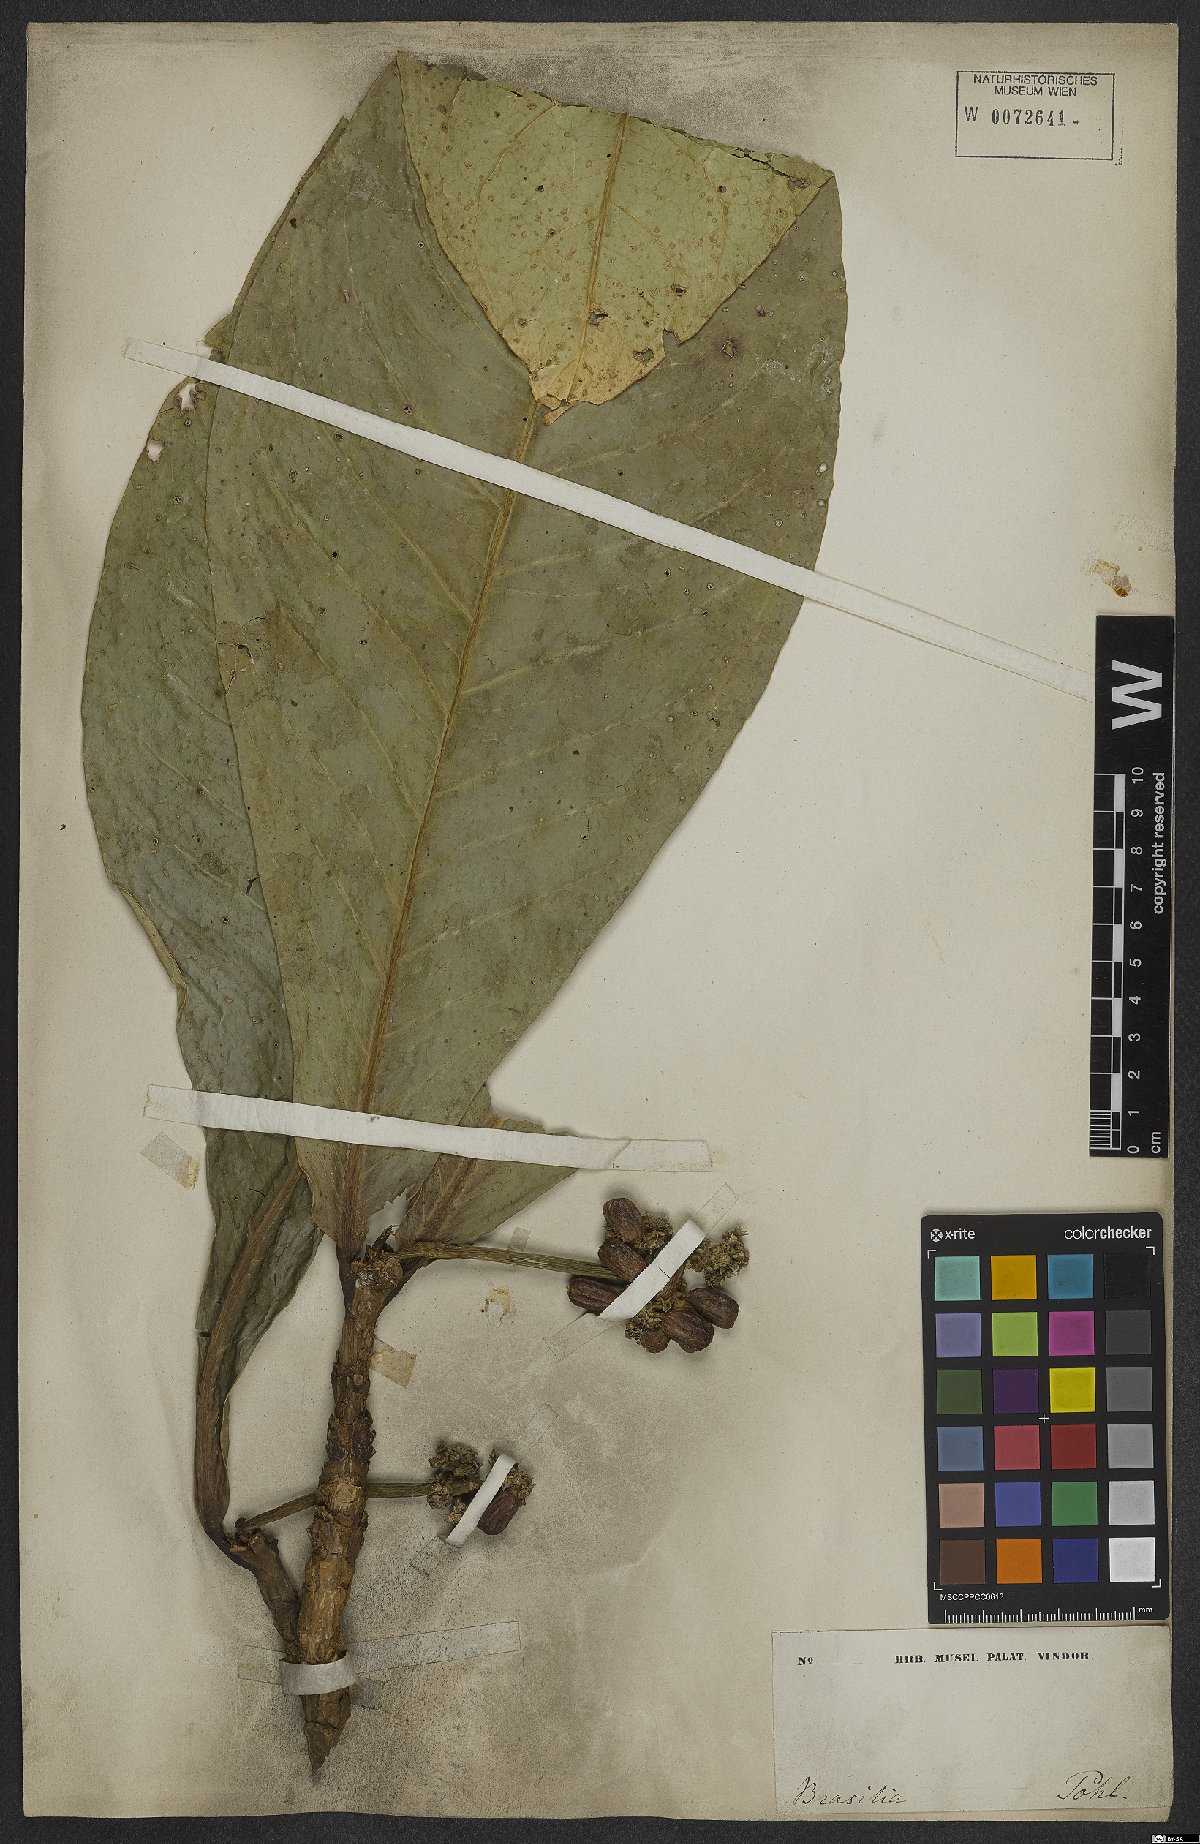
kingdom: Plantae
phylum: Tracheophyta
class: Magnoliopsida
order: Gentianales
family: Rubiaceae
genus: Rudgea
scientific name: Rudgea macrophylla
